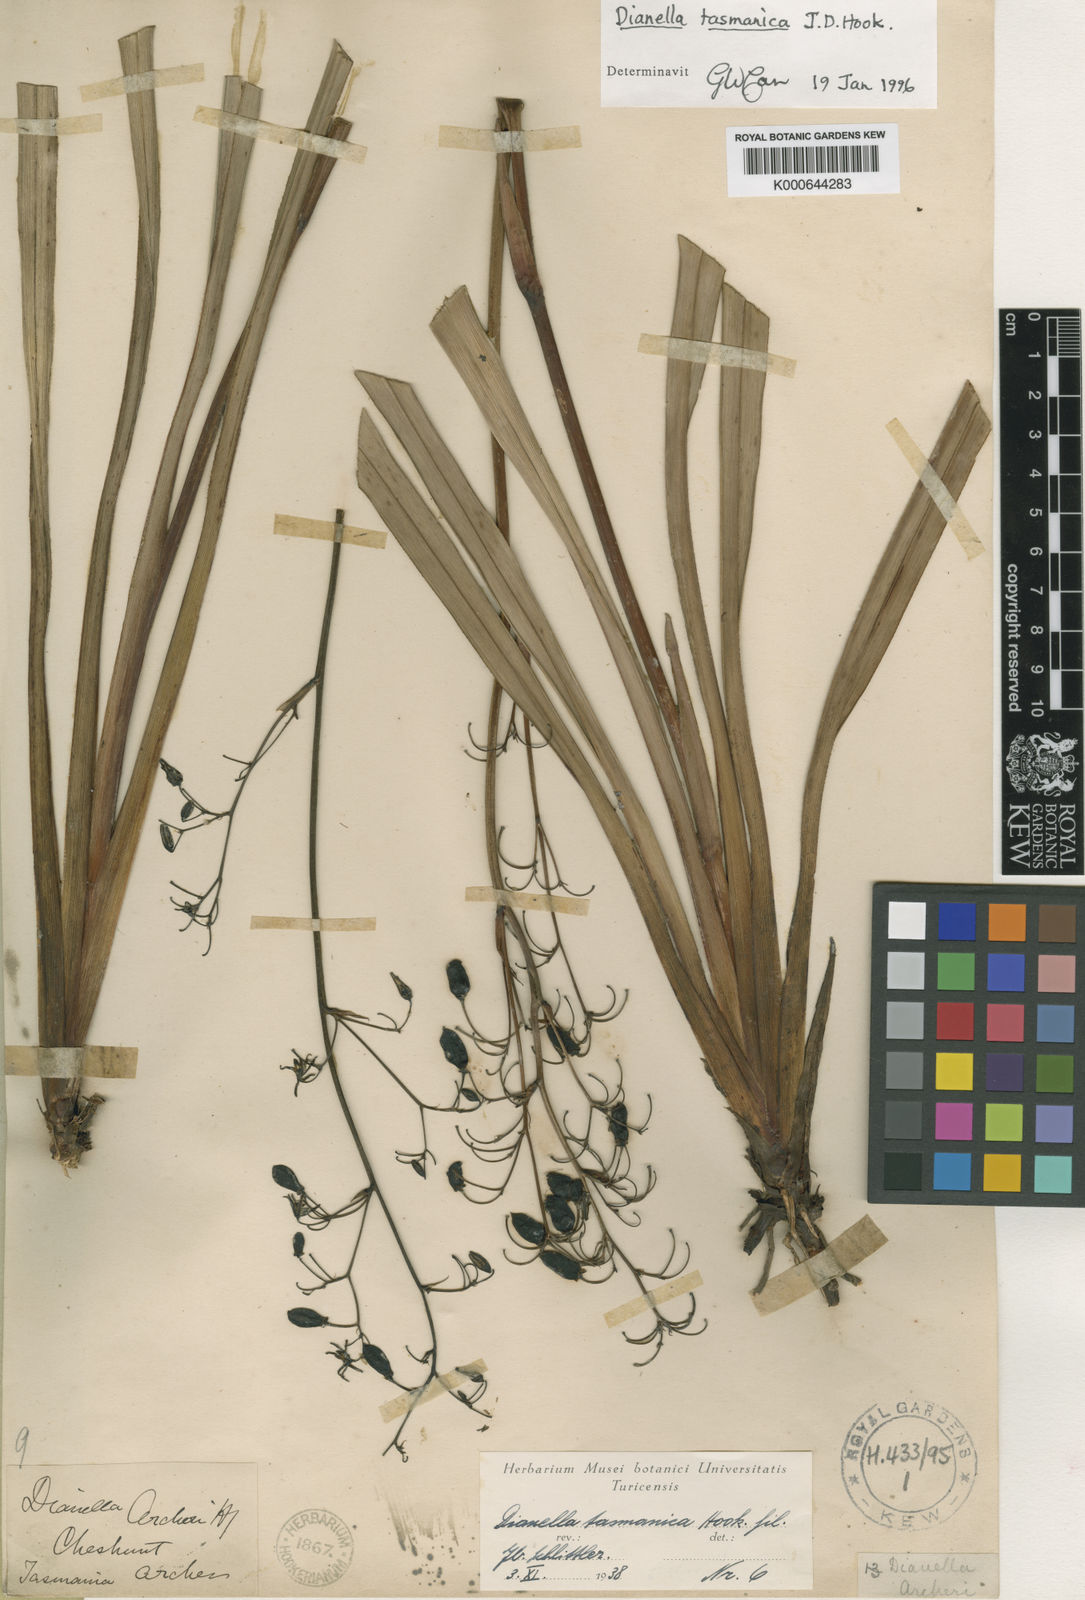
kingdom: Plantae
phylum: Tracheophyta
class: Liliopsida
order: Asparagales
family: Asphodelaceae
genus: Dianella
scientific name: Dianella tasmanica
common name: Tasman flax-lily
